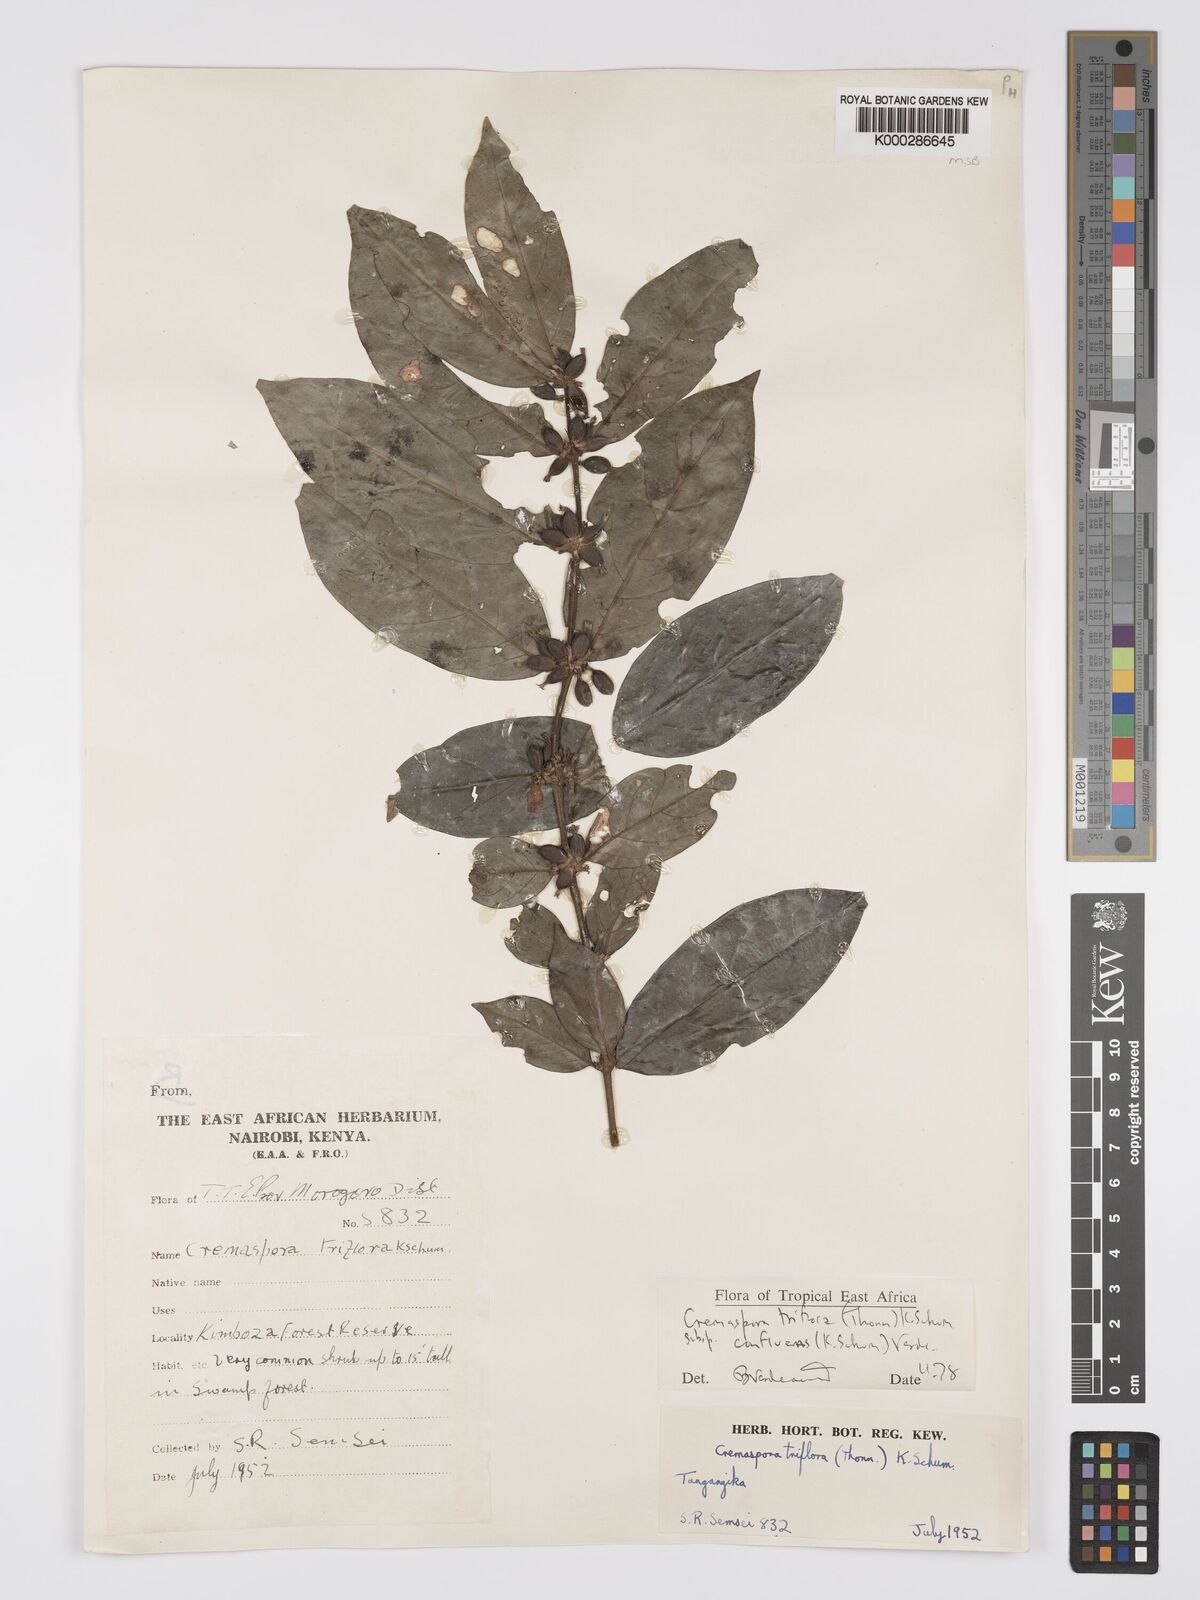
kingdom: Plantae
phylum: Tracheophyta
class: Magnoliopsida
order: Gentianales
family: Rubiaceae
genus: Cremaspora
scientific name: Cremaspora triflora
